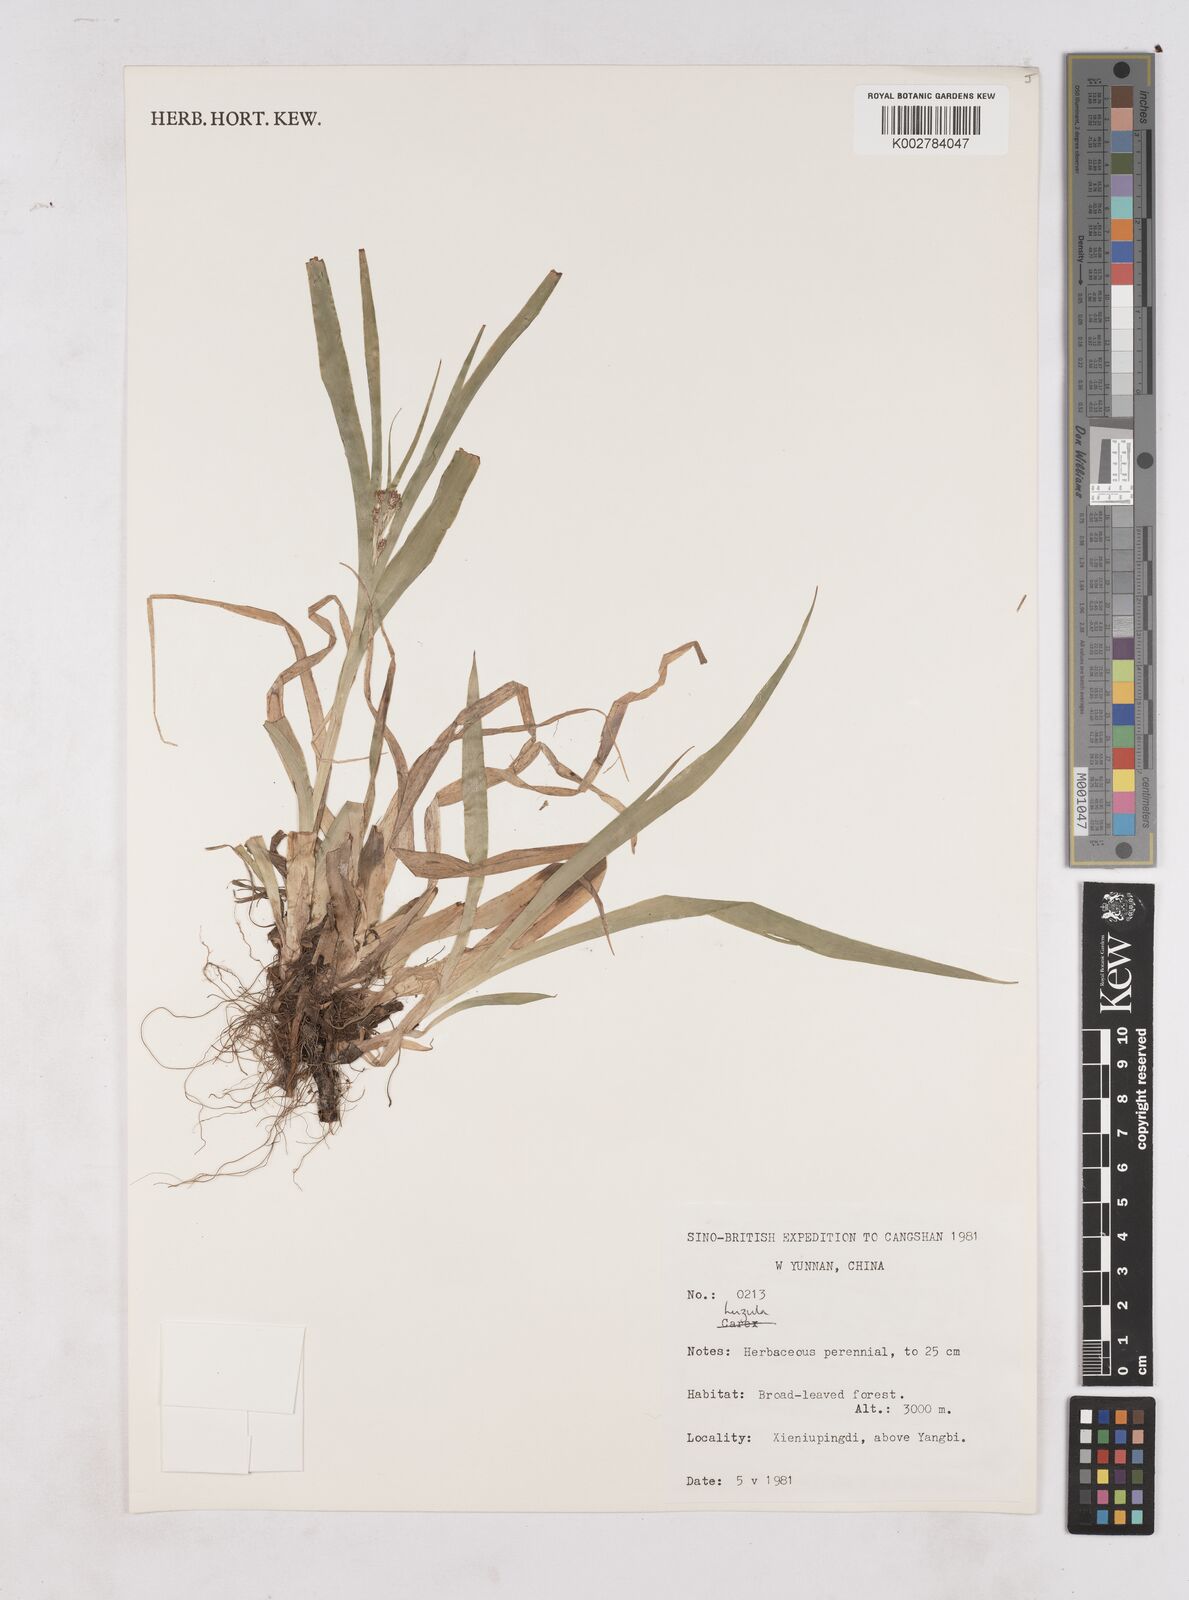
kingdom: Plantae
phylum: Tracheophyta
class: Liliopsida
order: Poales
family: Juncaceae
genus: Luzula
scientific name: Luzula
